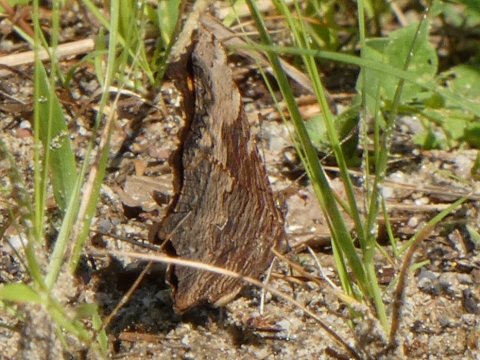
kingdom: Animalia
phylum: Arthropoda
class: Insecta
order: Lepidoptera
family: Nymphalidae
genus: Polygonia
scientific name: Polygonia progne
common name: Gray Comma
